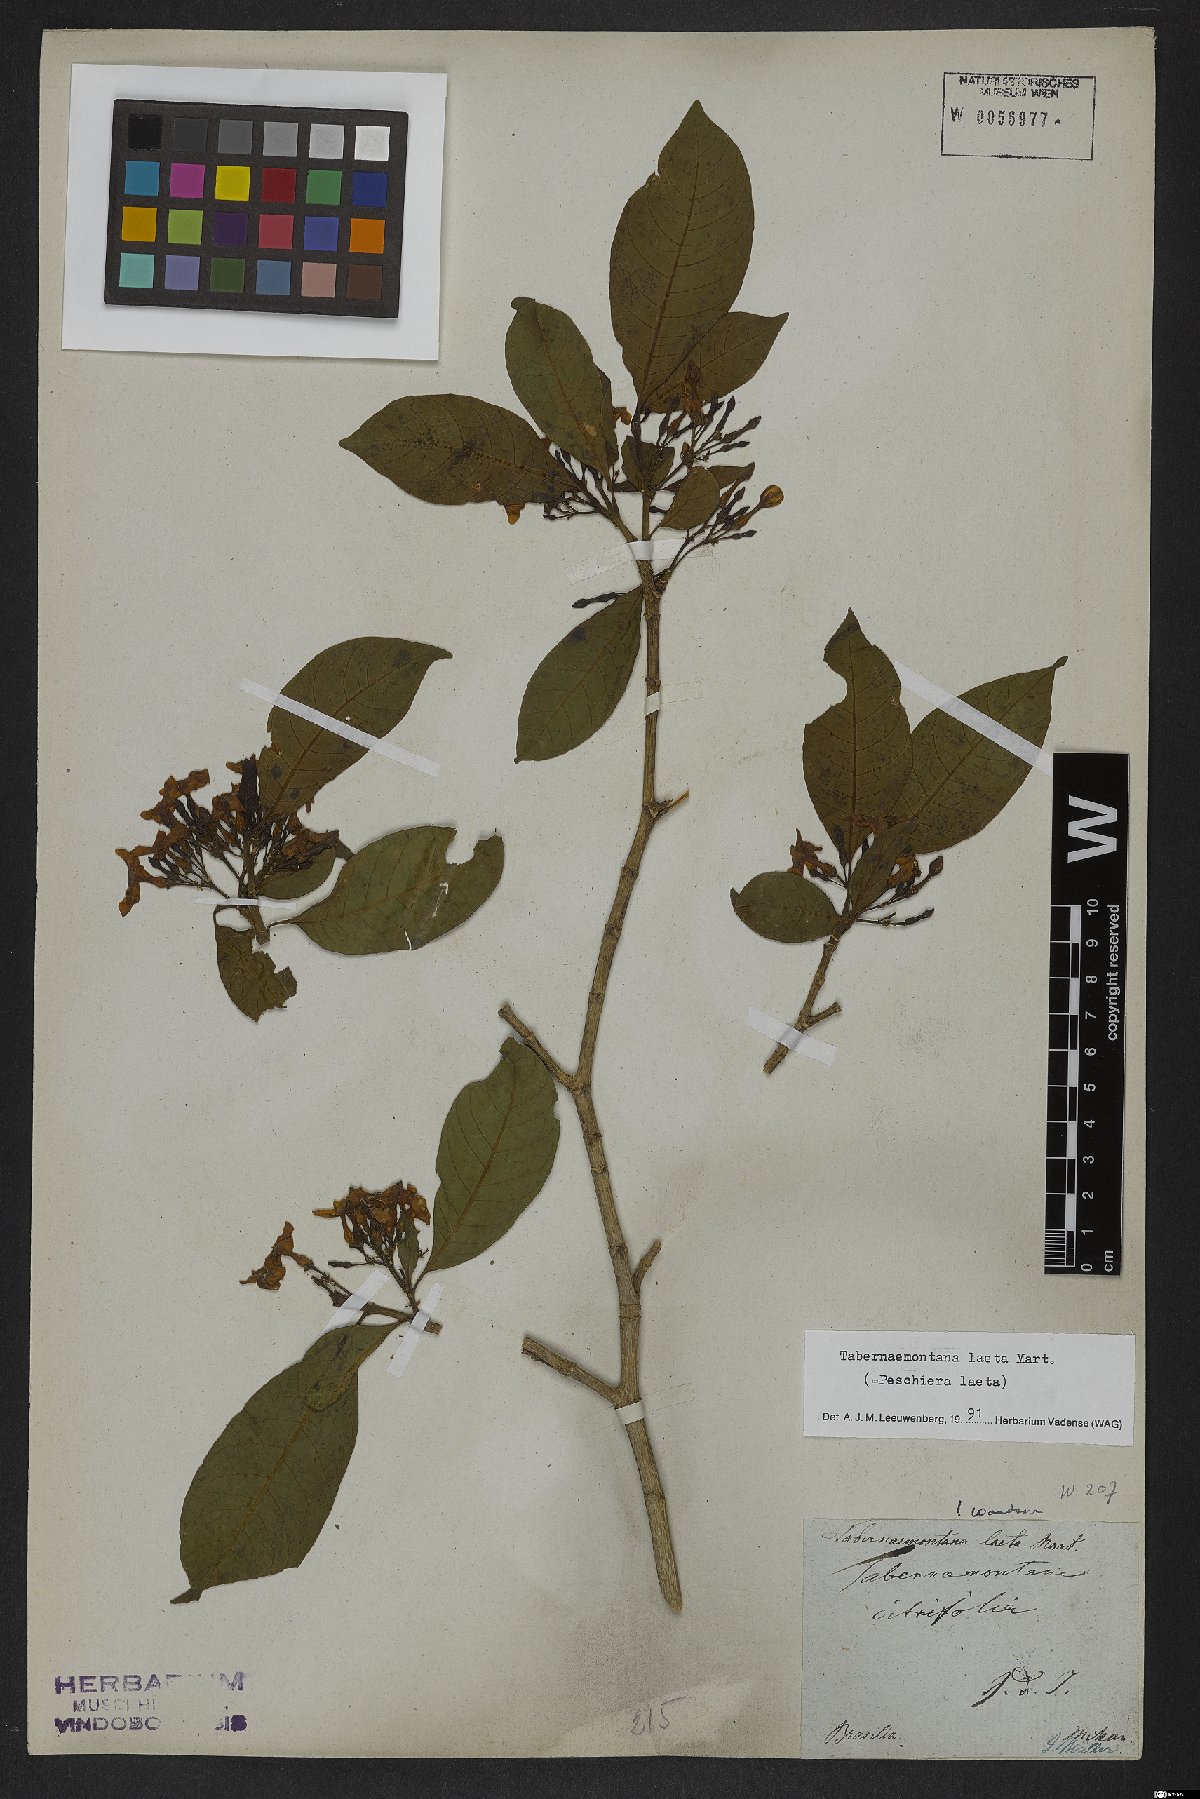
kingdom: Plantae
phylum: Tracheophyta
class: Magnoliopsida
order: Gentianales
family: Apocynaceae
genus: Tabernaemontana
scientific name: Tabernaemontana laeta
